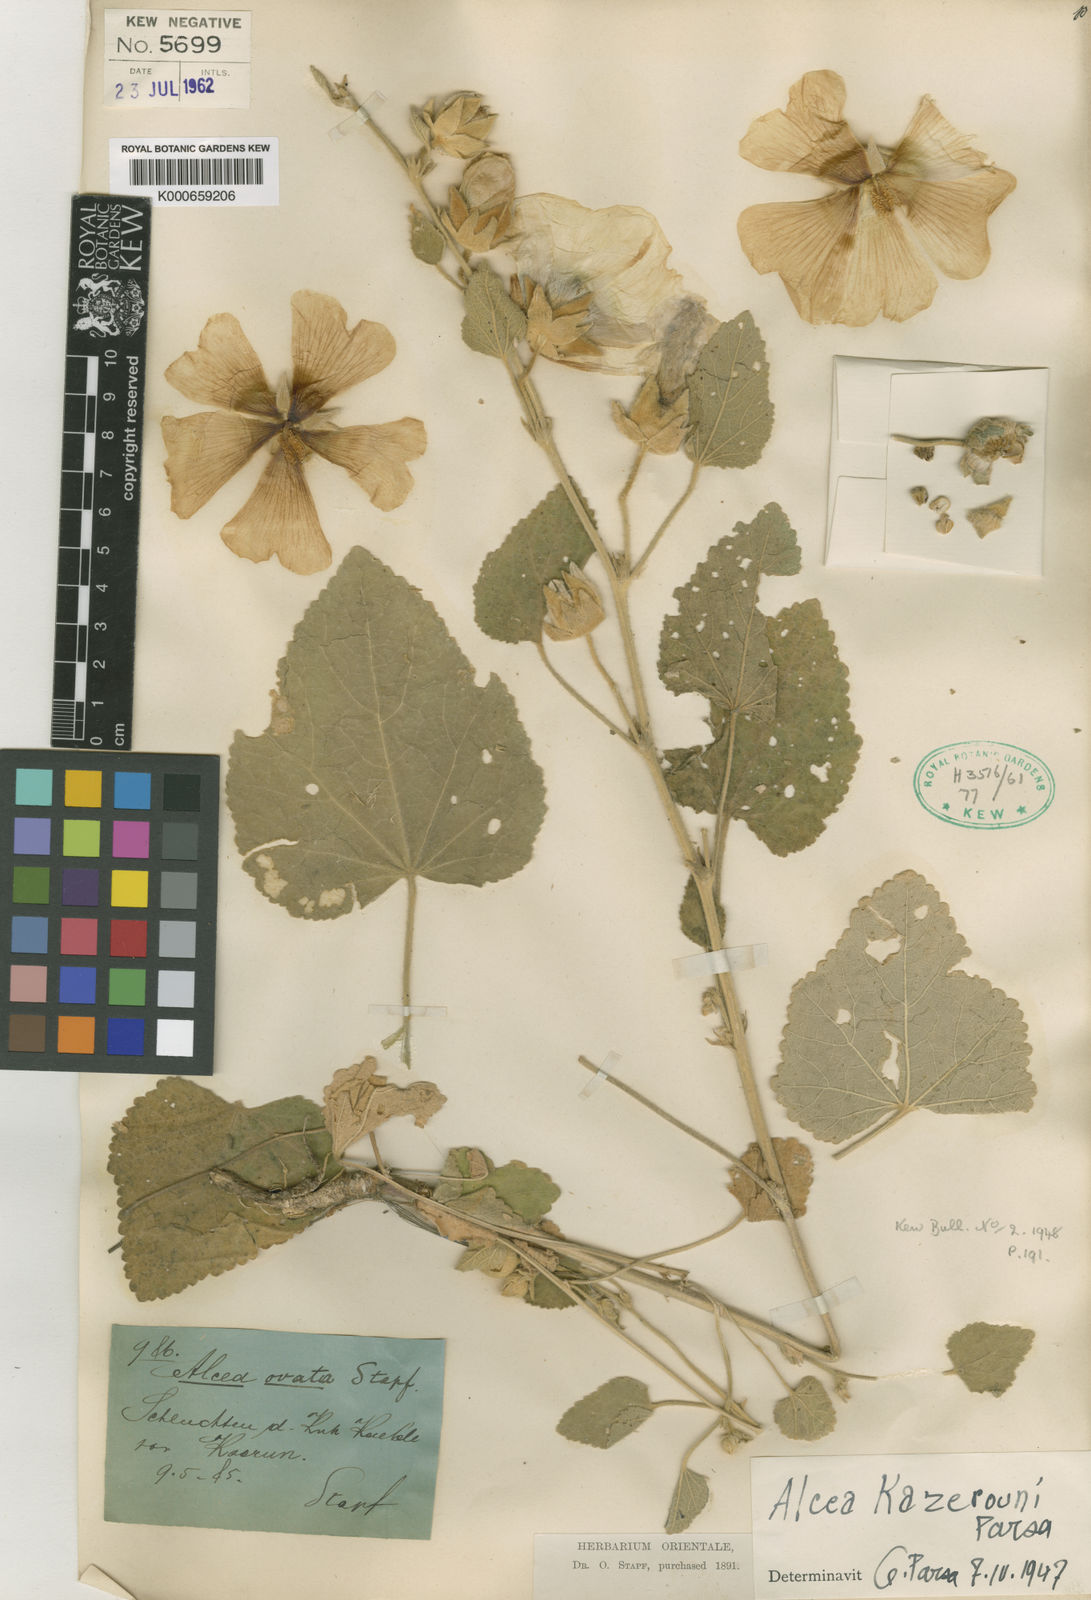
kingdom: Plantae
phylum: Tracheophyta
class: Magnoliopsida
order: Malvales
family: Malvaceae
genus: Alcea
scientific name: Alcea sulphurea
